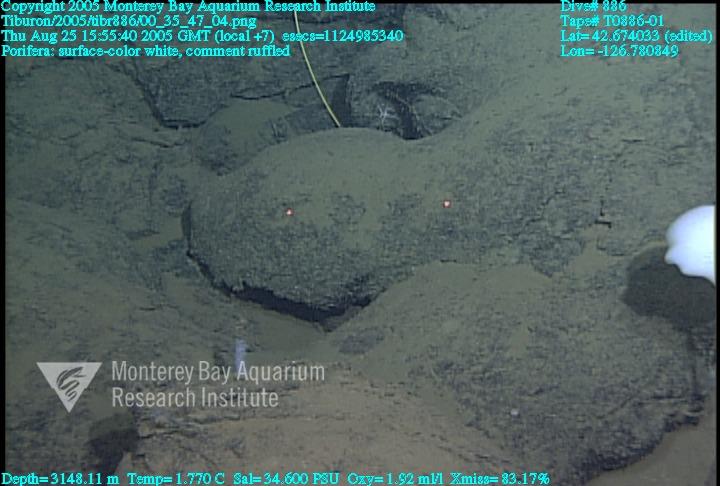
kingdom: Animalia
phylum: Porifera
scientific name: Porifera
